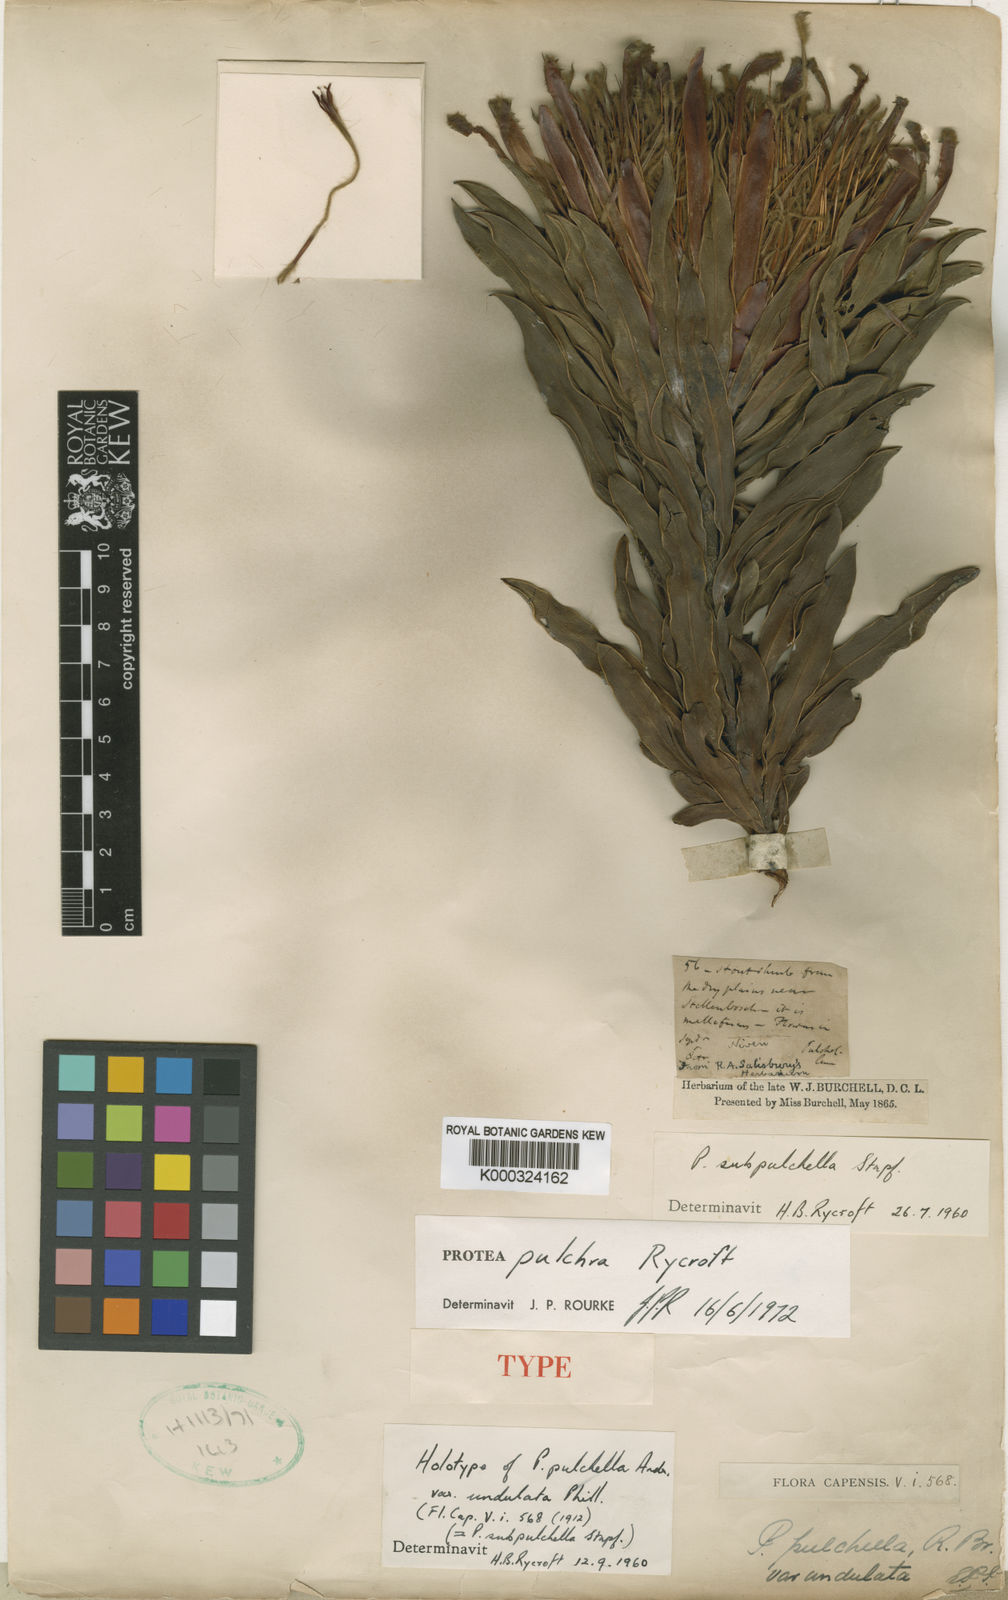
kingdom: Plantae
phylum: Tracheophyta
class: Magnoliopsida
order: Proteales
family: Proteaceae
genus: Protea
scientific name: Protea burchellii
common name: Burchell's sugarbush
